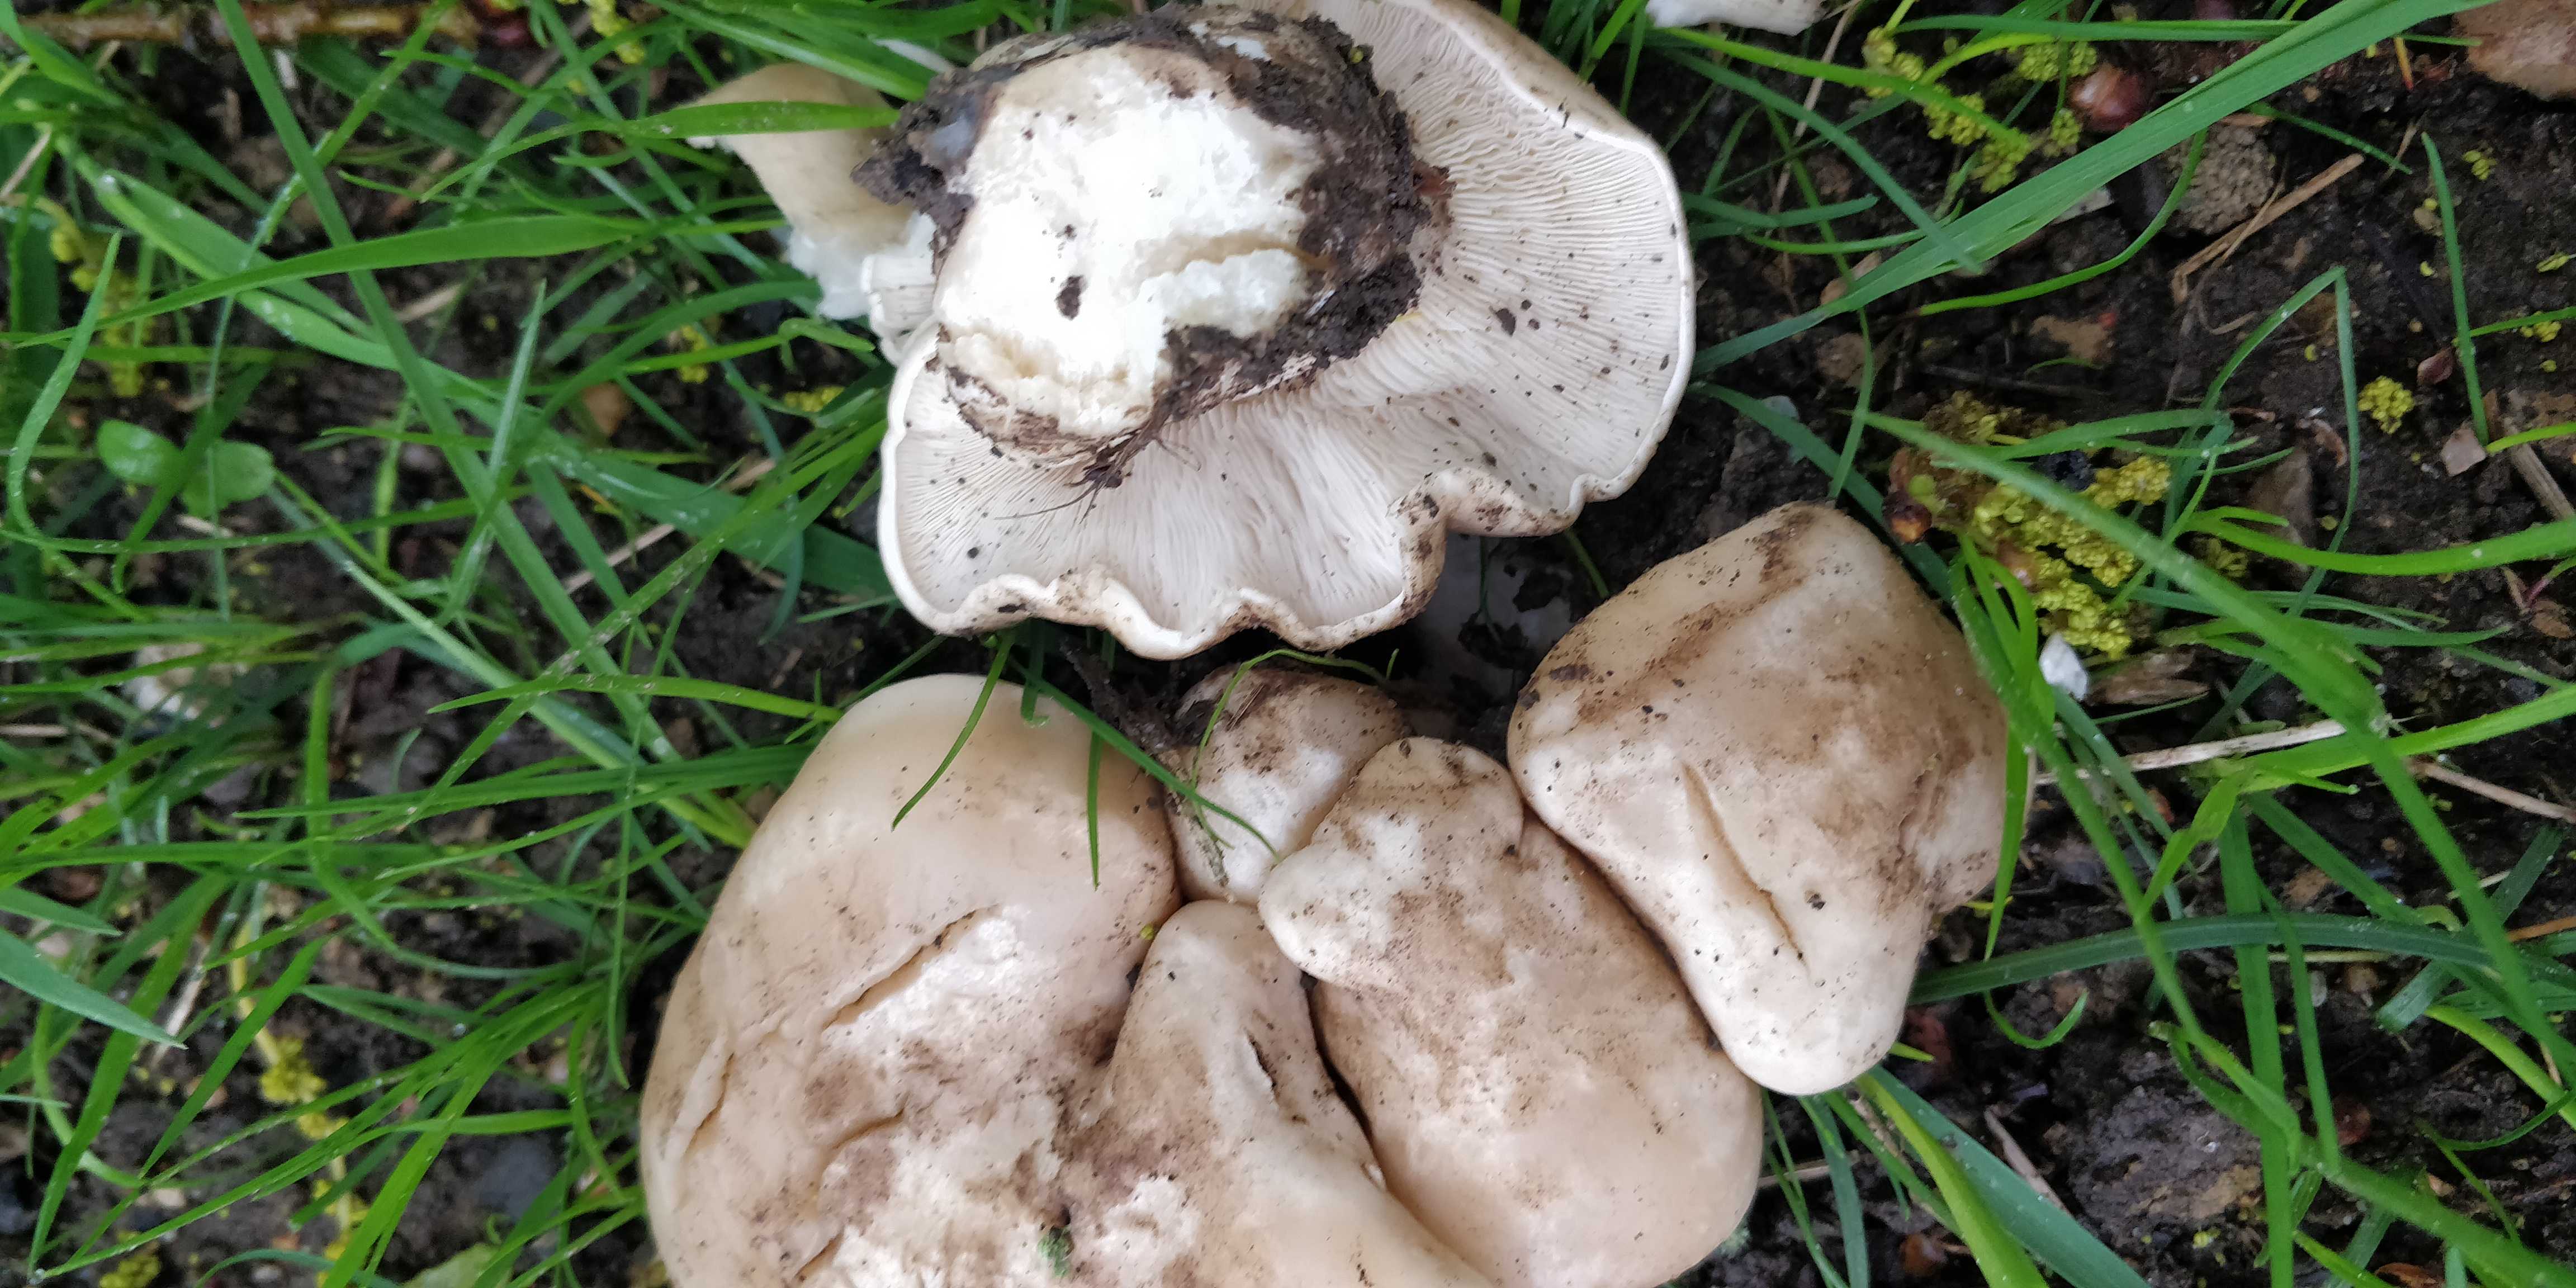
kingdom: Fungi
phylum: Basidiomycota
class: Agaricomycetes
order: Agaricales
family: Lyophyllaceae
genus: Calocybe
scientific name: Calocybe gambosa
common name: vårmusseron
